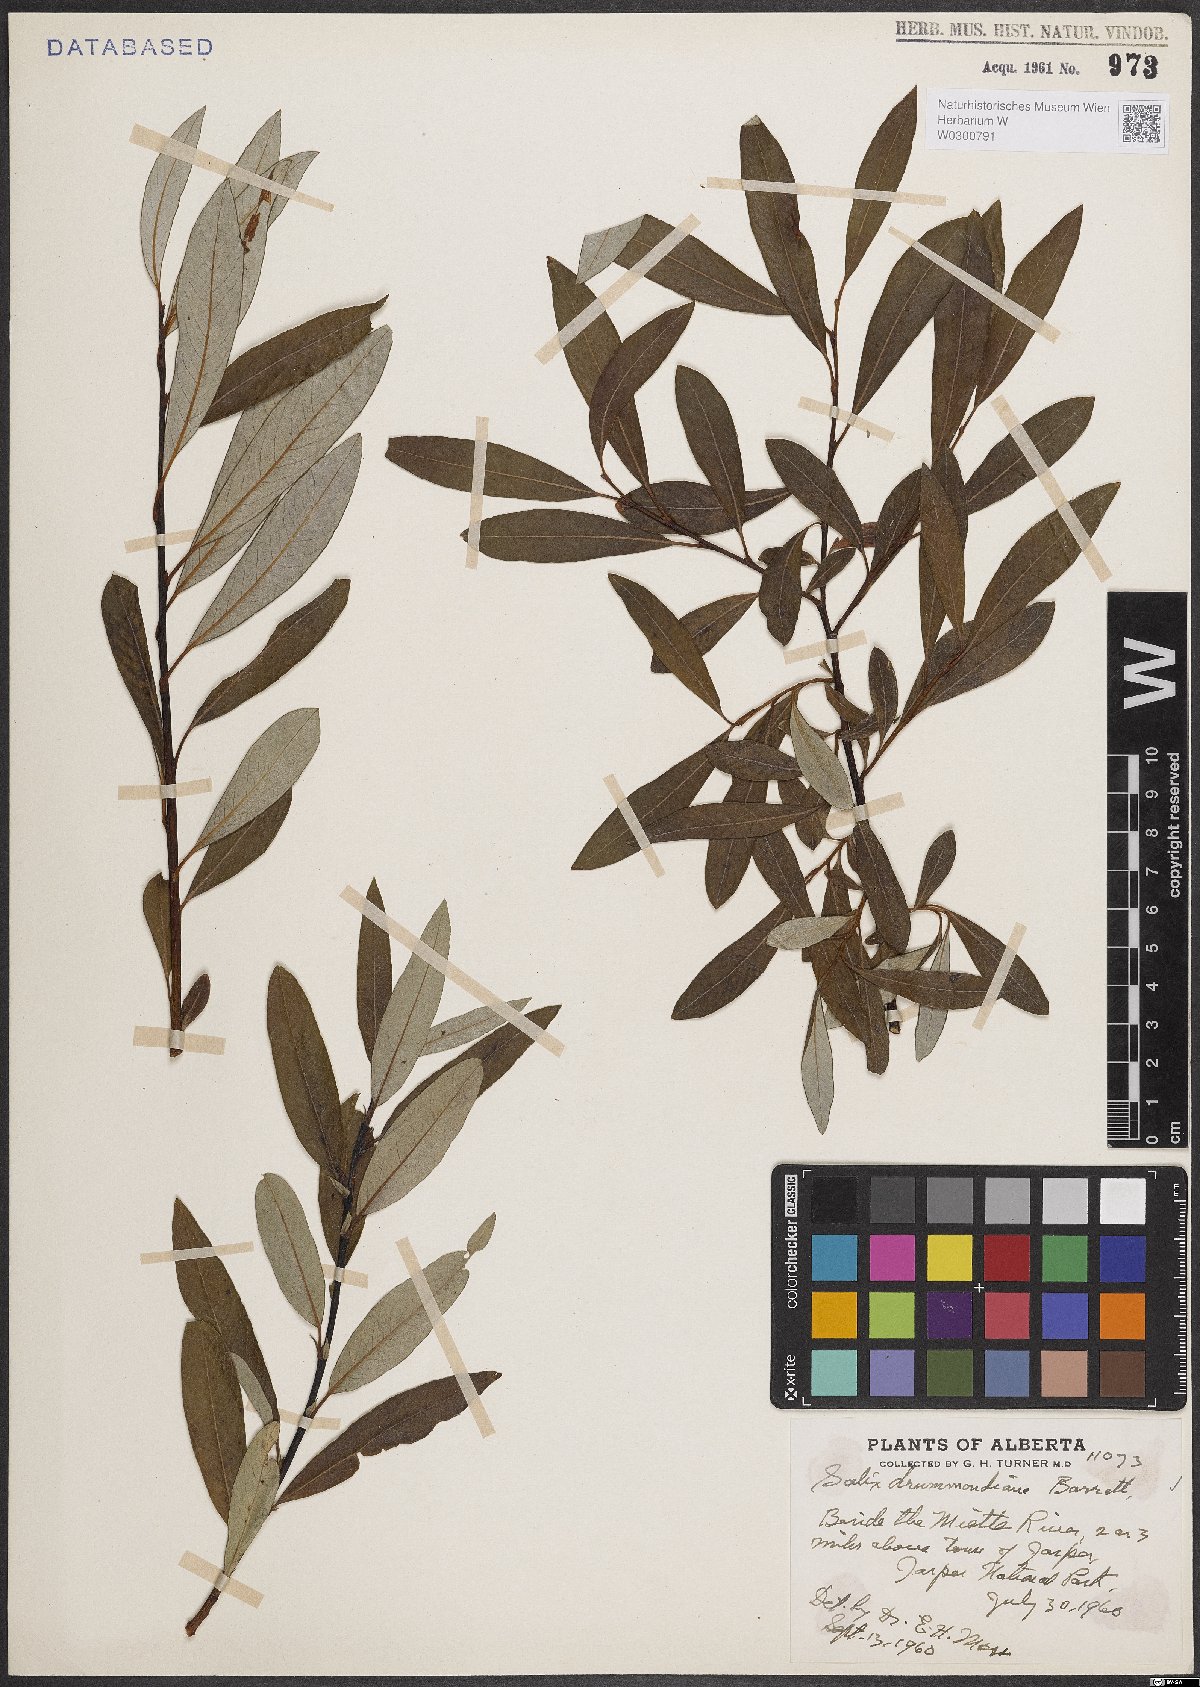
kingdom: Plantae
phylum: Tracheophyta
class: Magnoliopsida
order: Malpighiales
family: Salicaceae
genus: Salix
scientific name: Salix drummondiana
